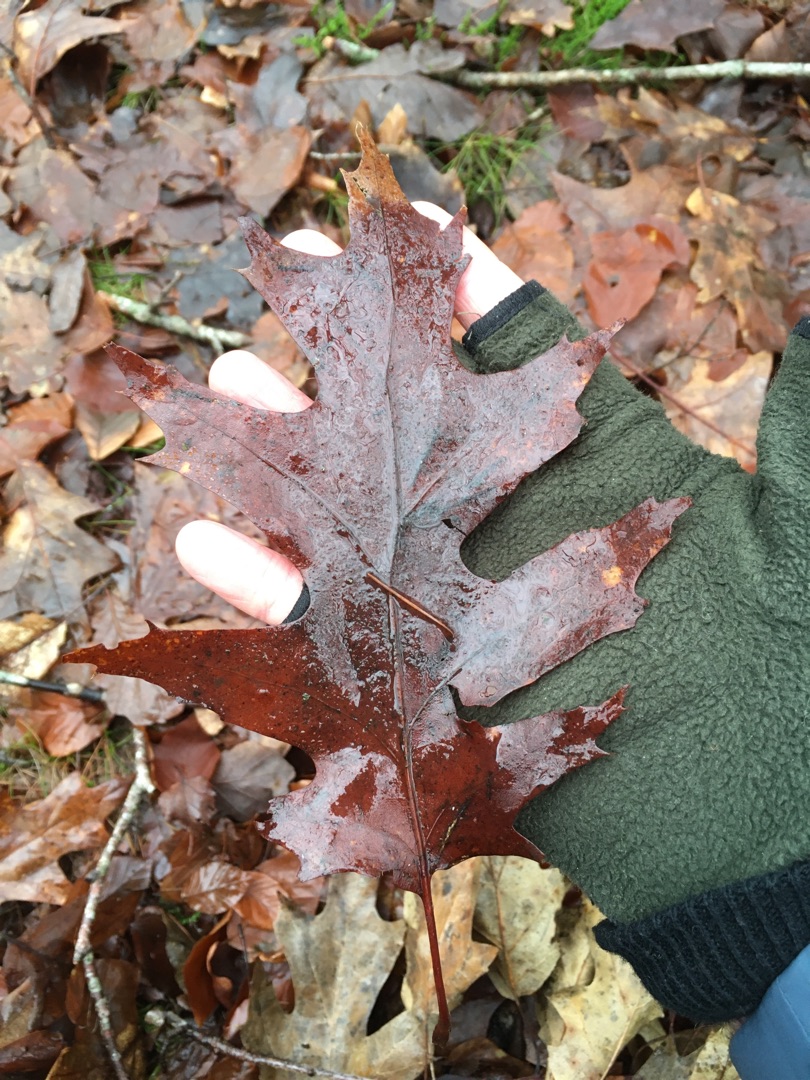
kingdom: Plantae
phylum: Tracheophyta
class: Magnoliopsida
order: Fagales
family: Fagaceae
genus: Quercus
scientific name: Quercus rubra
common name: Rød-eg
